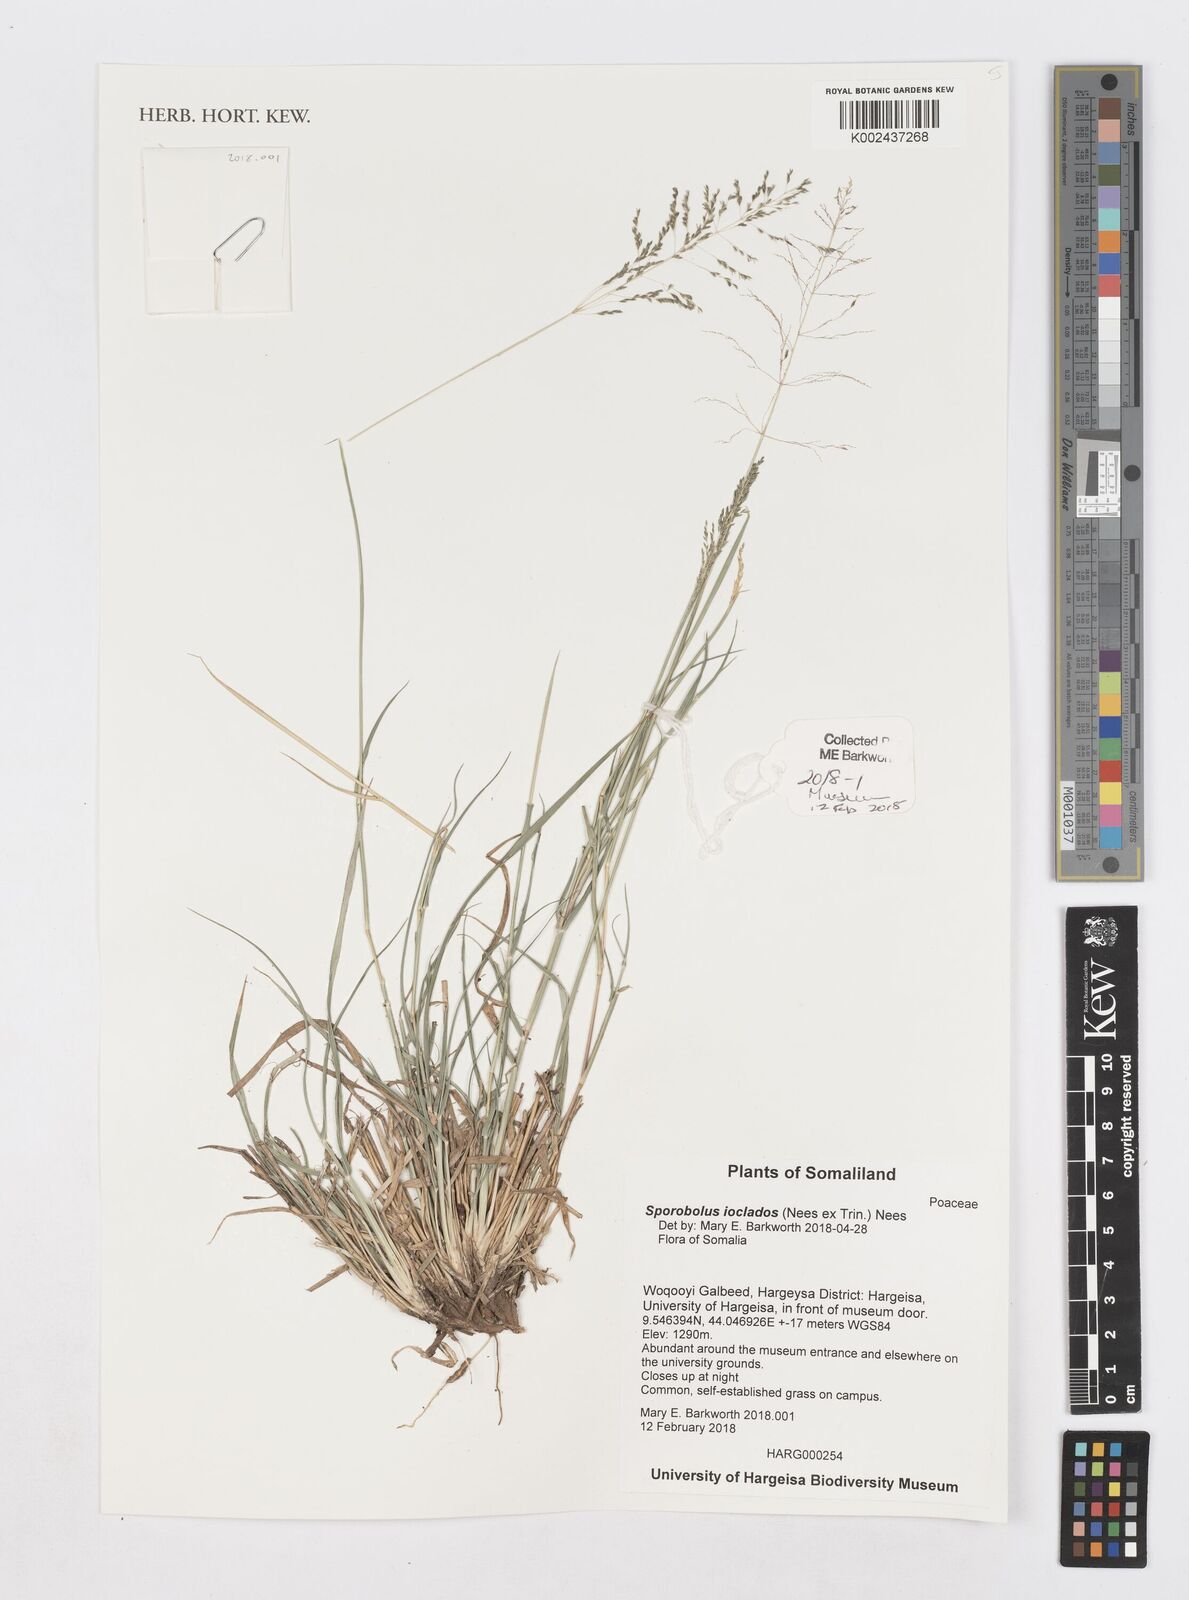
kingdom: Plantae
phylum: Tracheophyta
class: Liliopsida
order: Poales
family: Poaceae
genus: Sporobolus
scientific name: Sporobolus ioclados
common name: Pan dropseed
